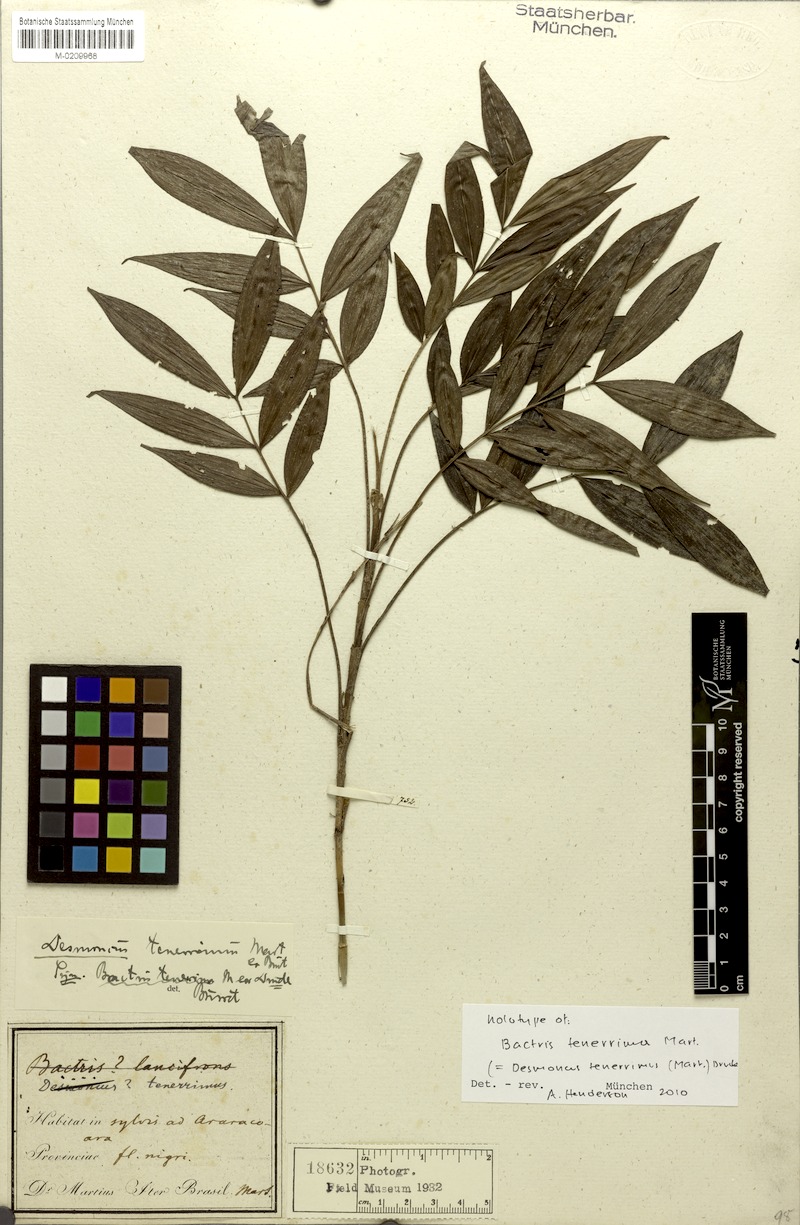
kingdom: Plantae
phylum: Tracheophyta
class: Liliopsida
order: Arecales
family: Arecaceae
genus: Desmoncus
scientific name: Desmoncus mitis
